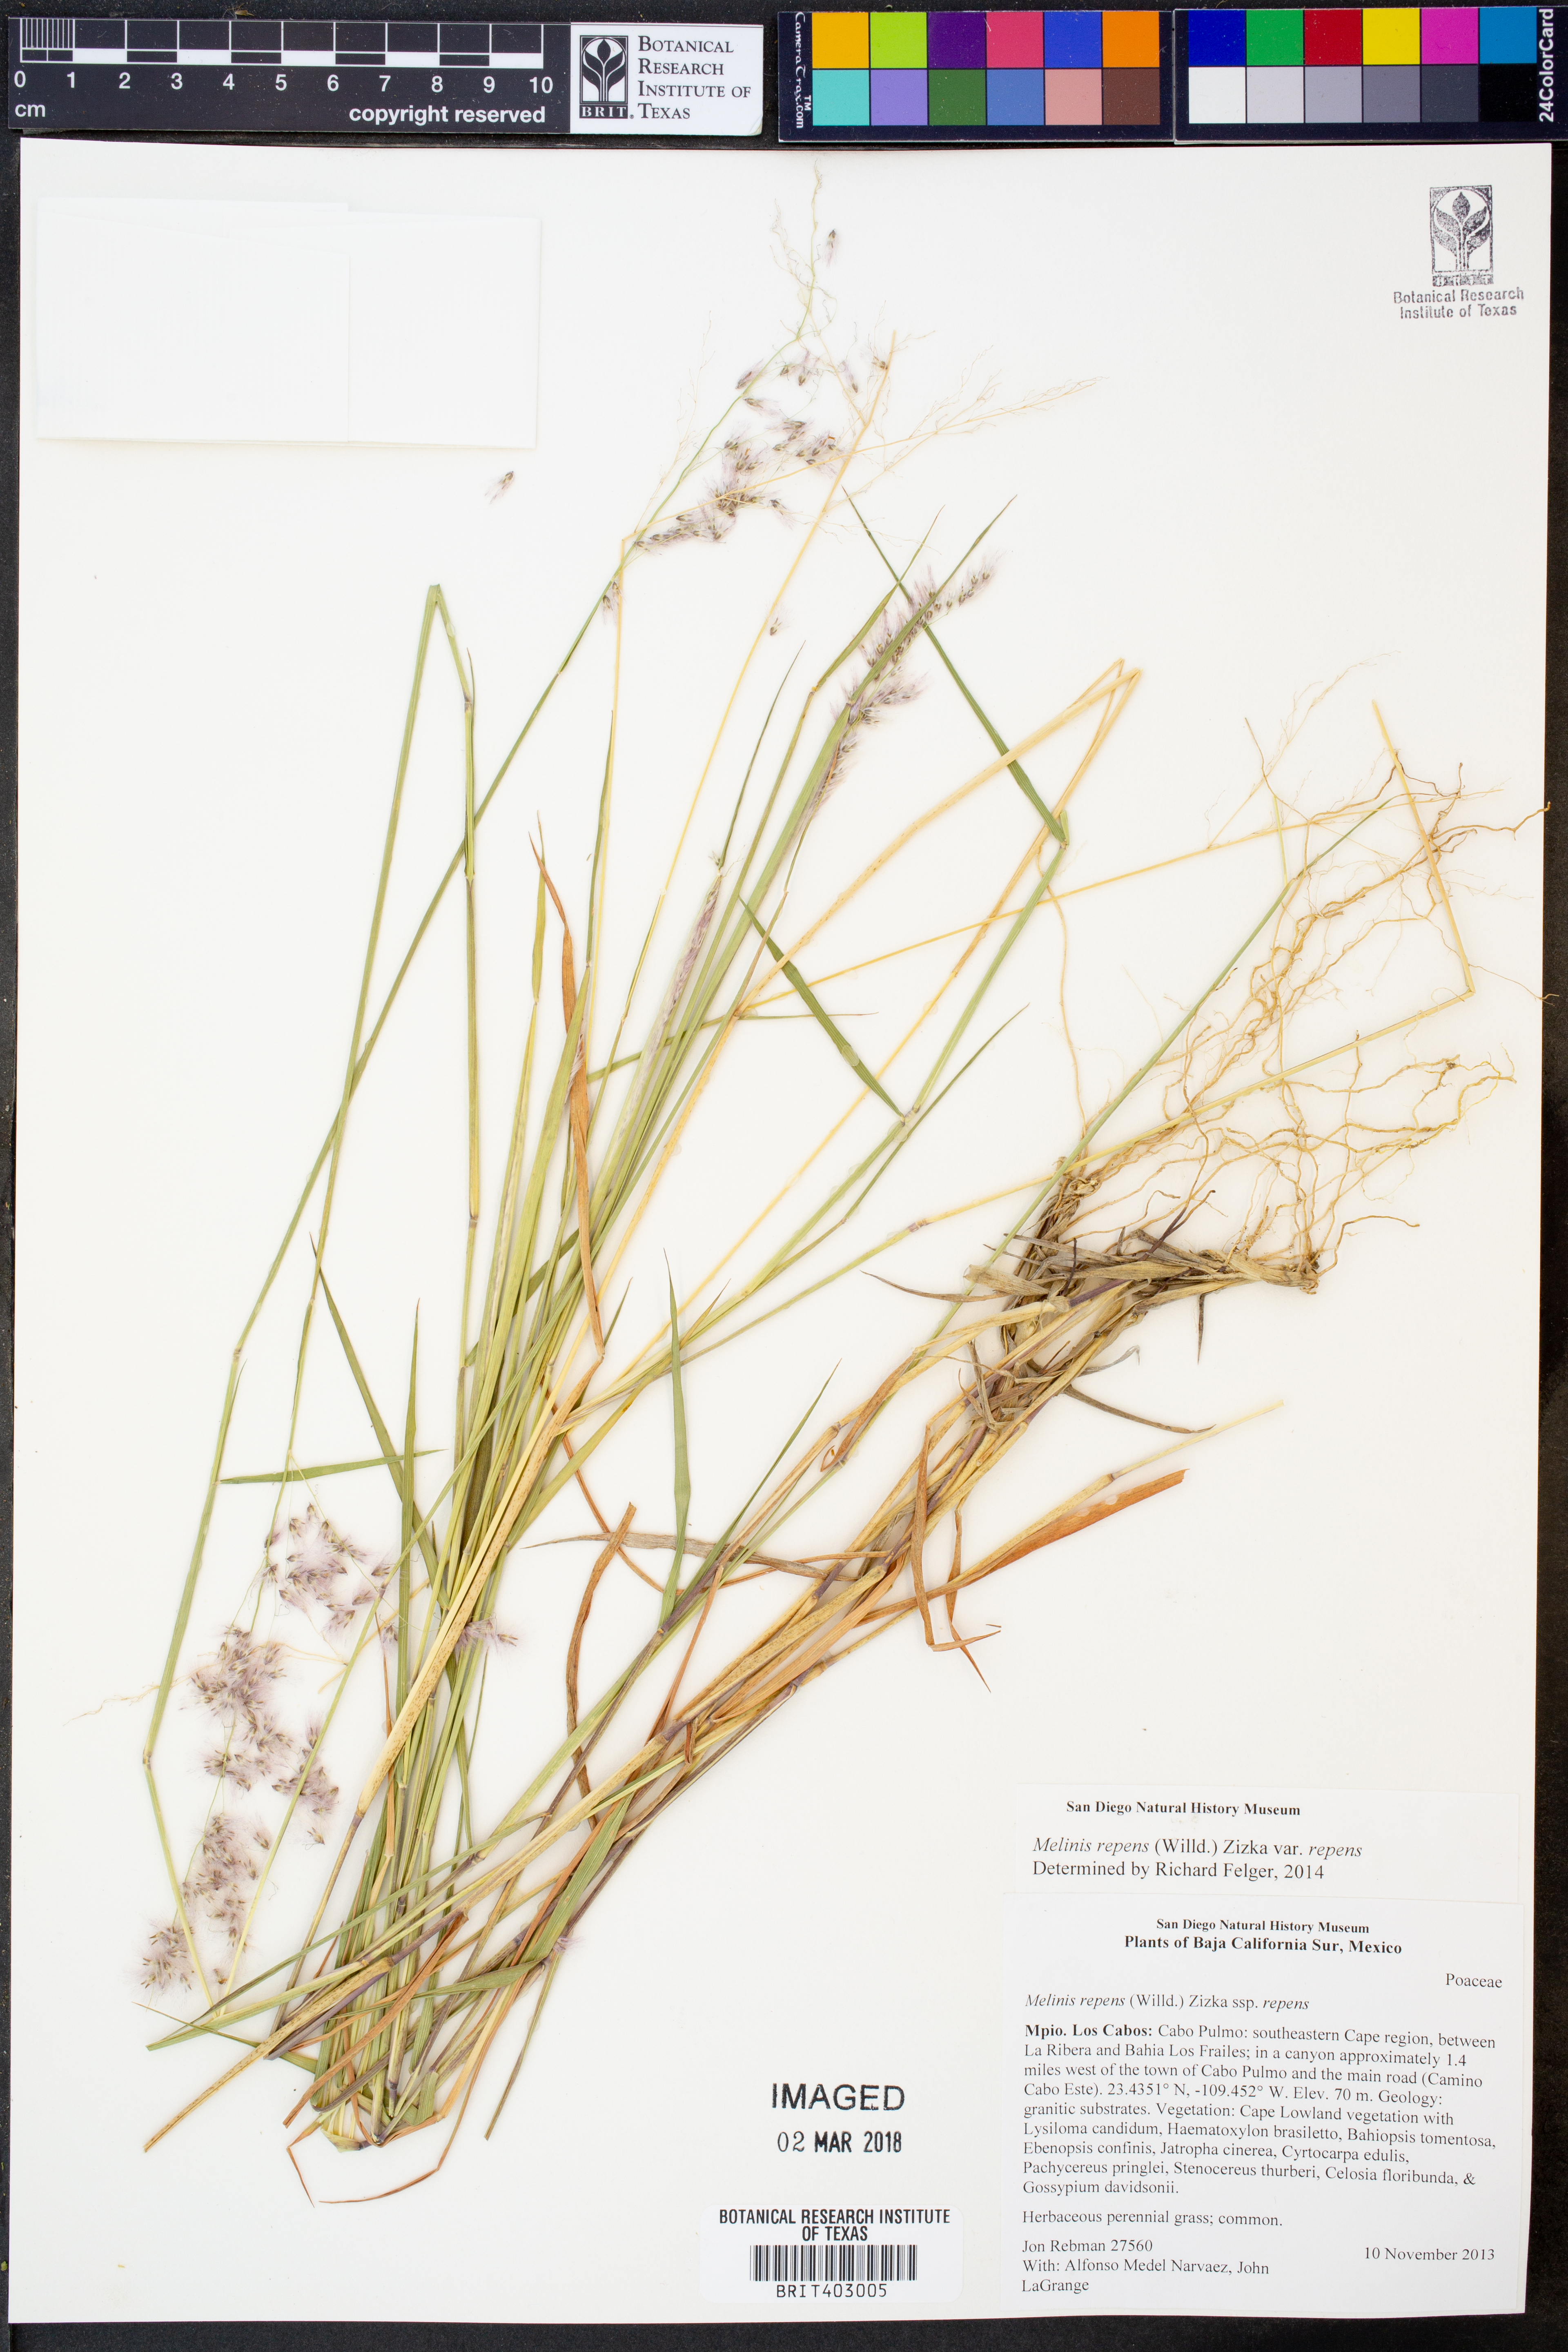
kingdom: Plantae
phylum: Tracheophyta
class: Liliopsida
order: Poales
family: Poaceae
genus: Melinis
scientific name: Melinis repens
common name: Rose natal grass
